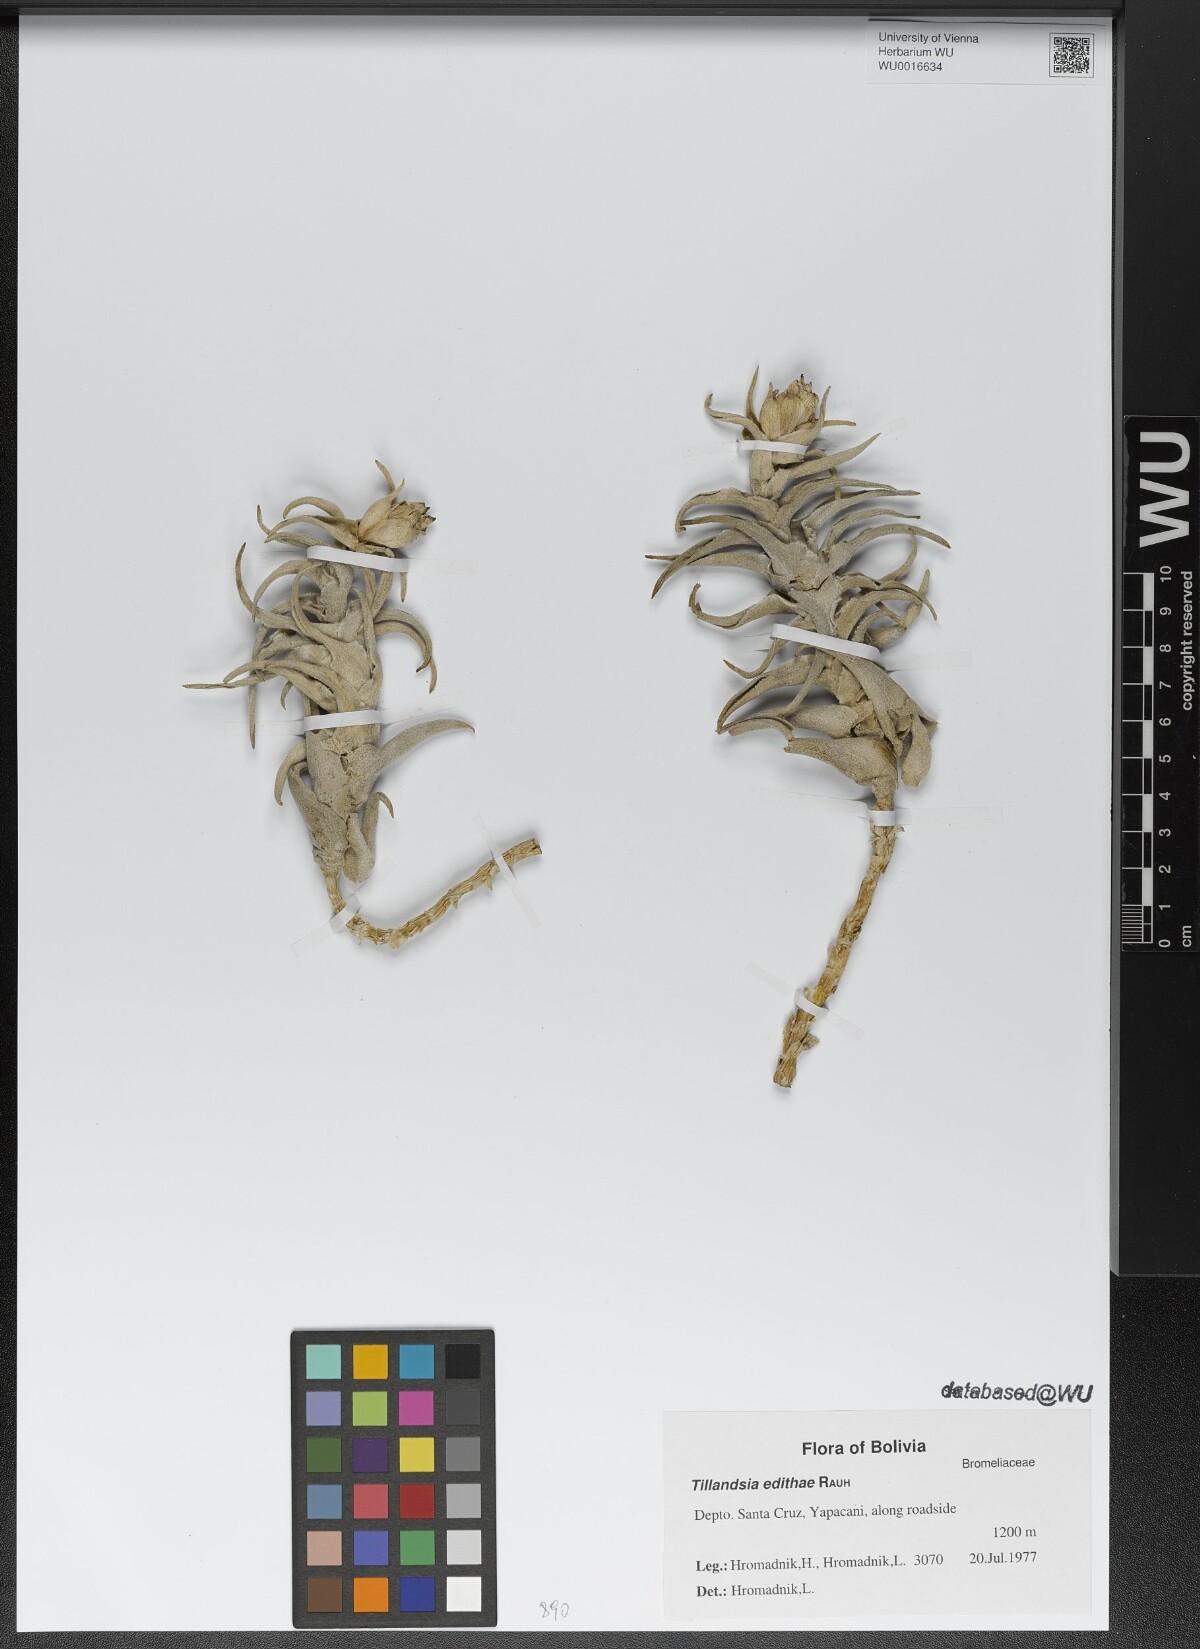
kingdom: Plantae
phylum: Tracheophyta
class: Liliopsida
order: Poales
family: Bromeliaceae
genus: Tillandsia
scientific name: Tillandsia edithae
